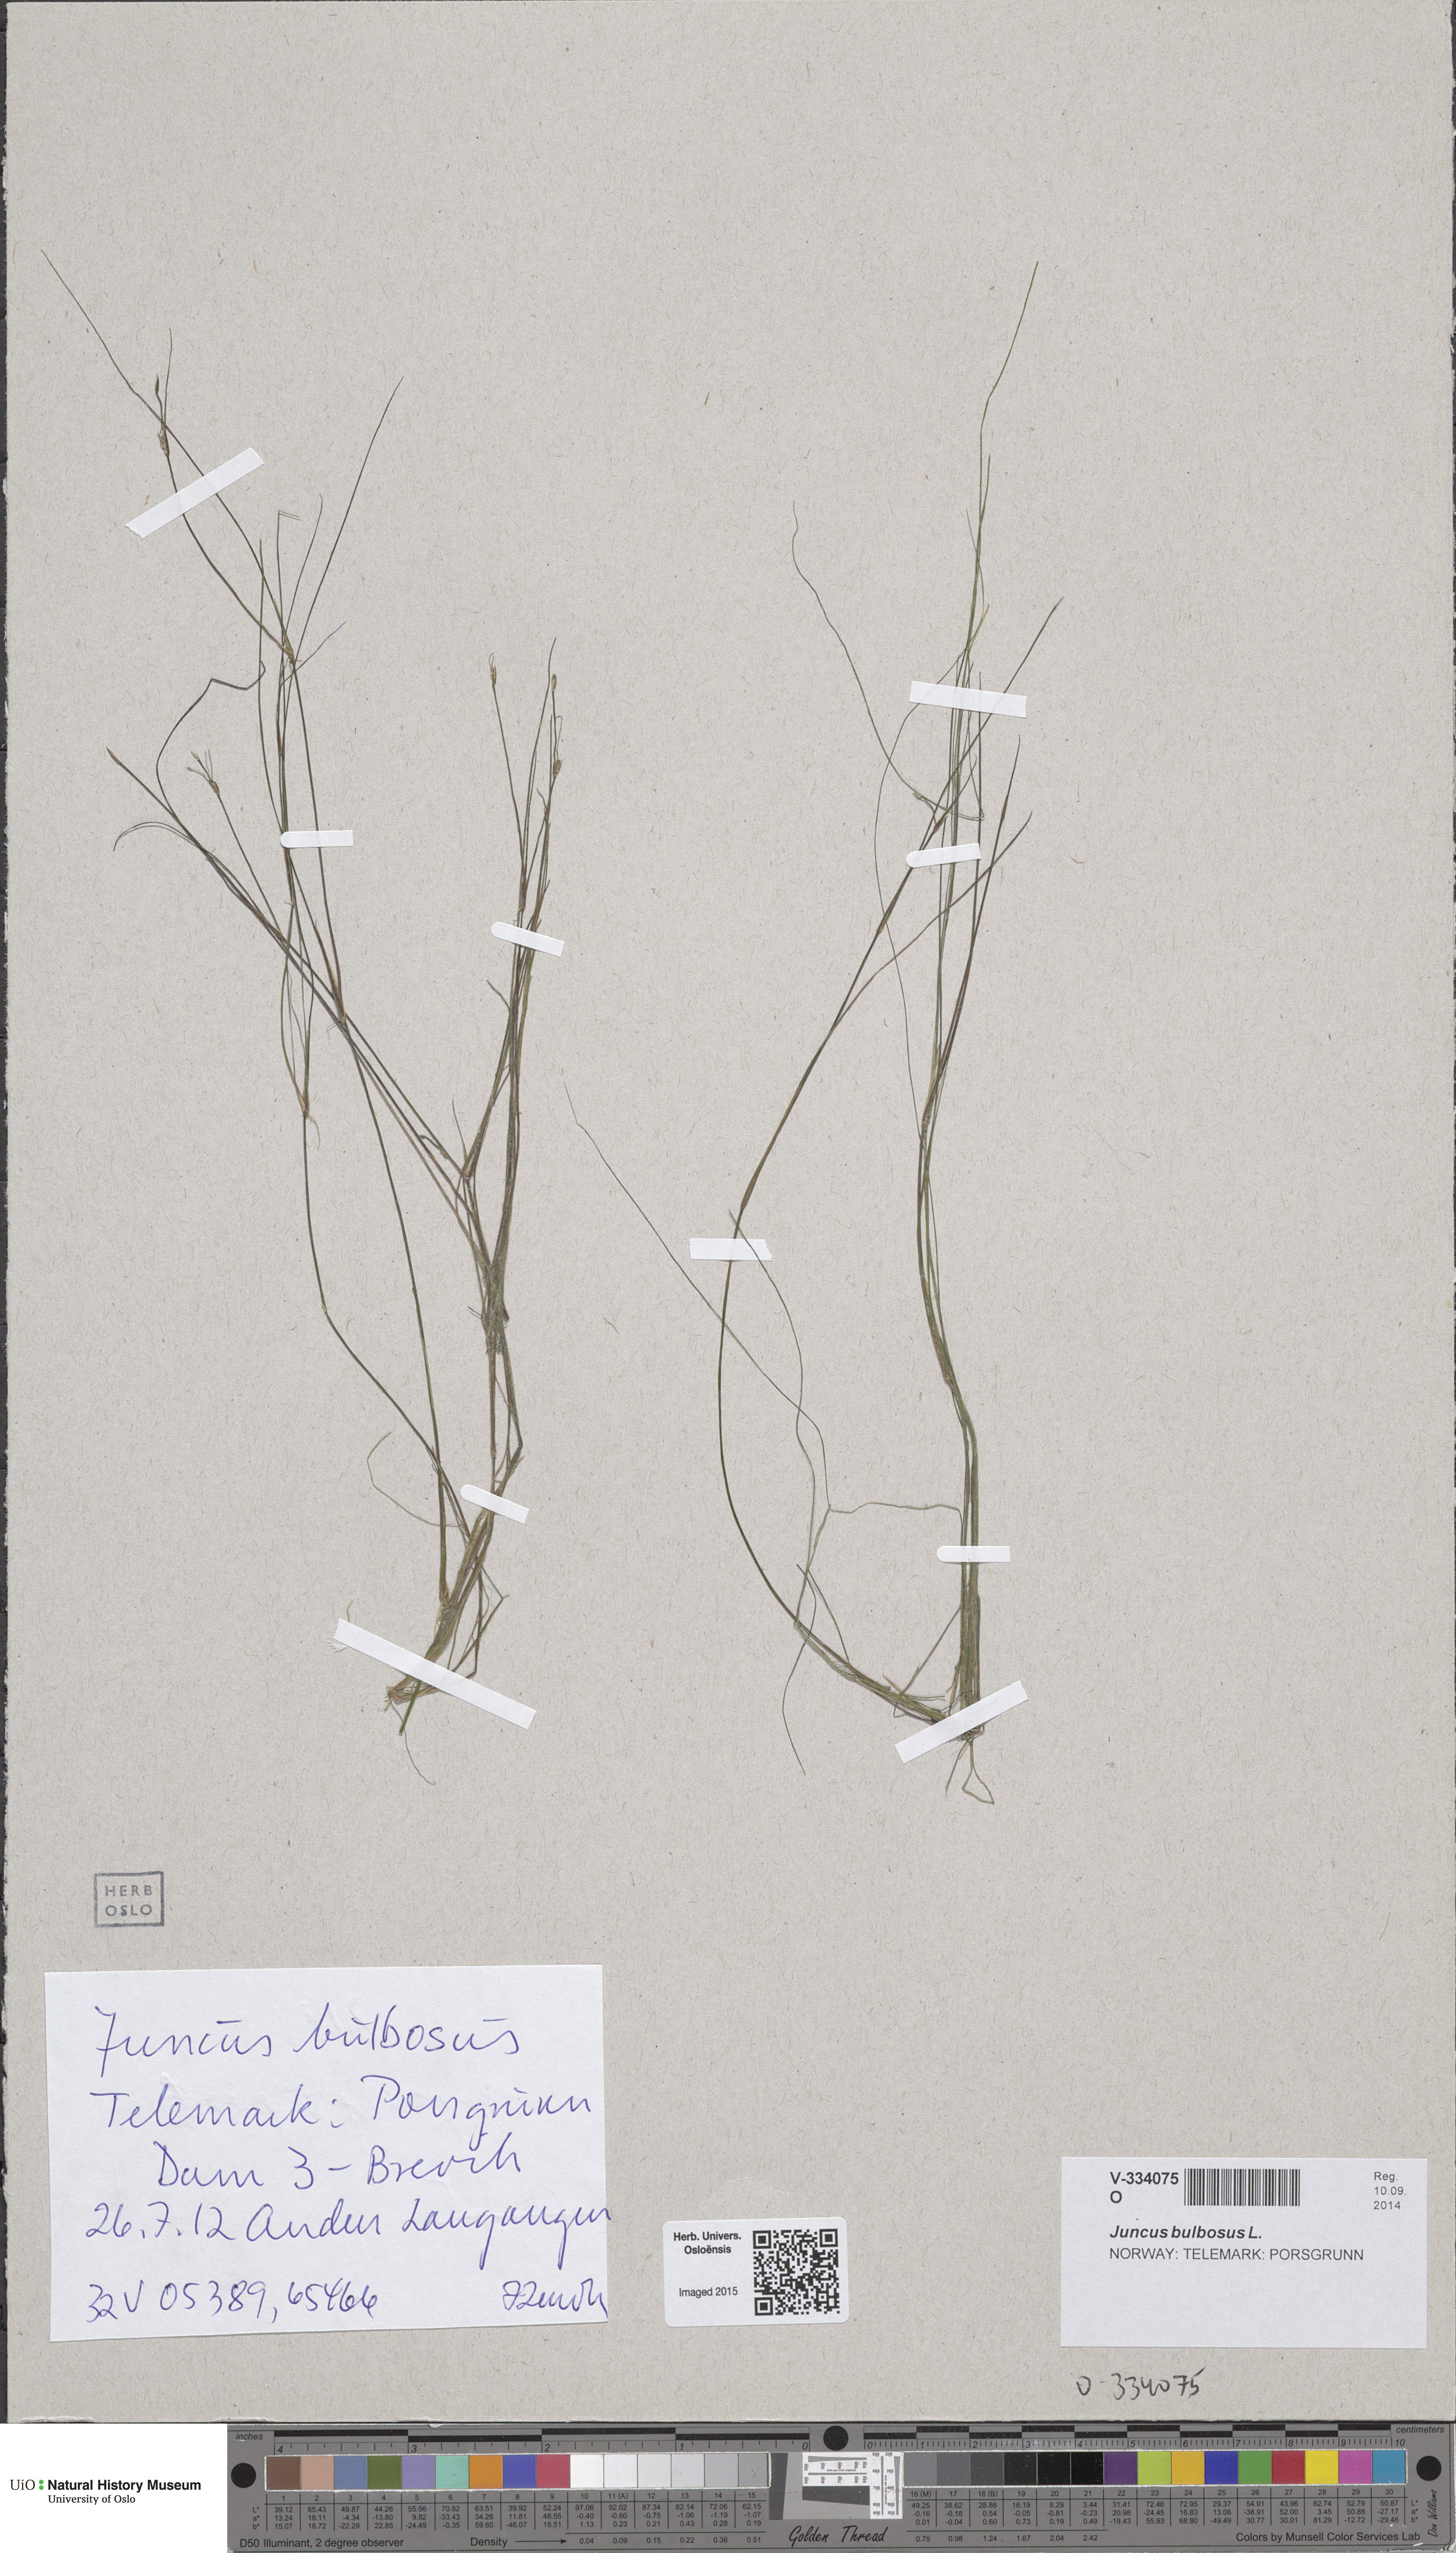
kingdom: Plantae
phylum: Tracheophyta
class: Liliopsida
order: Poales
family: Juncaceae
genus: Juncus
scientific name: Juncus bulbosus
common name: Bulbous rush
